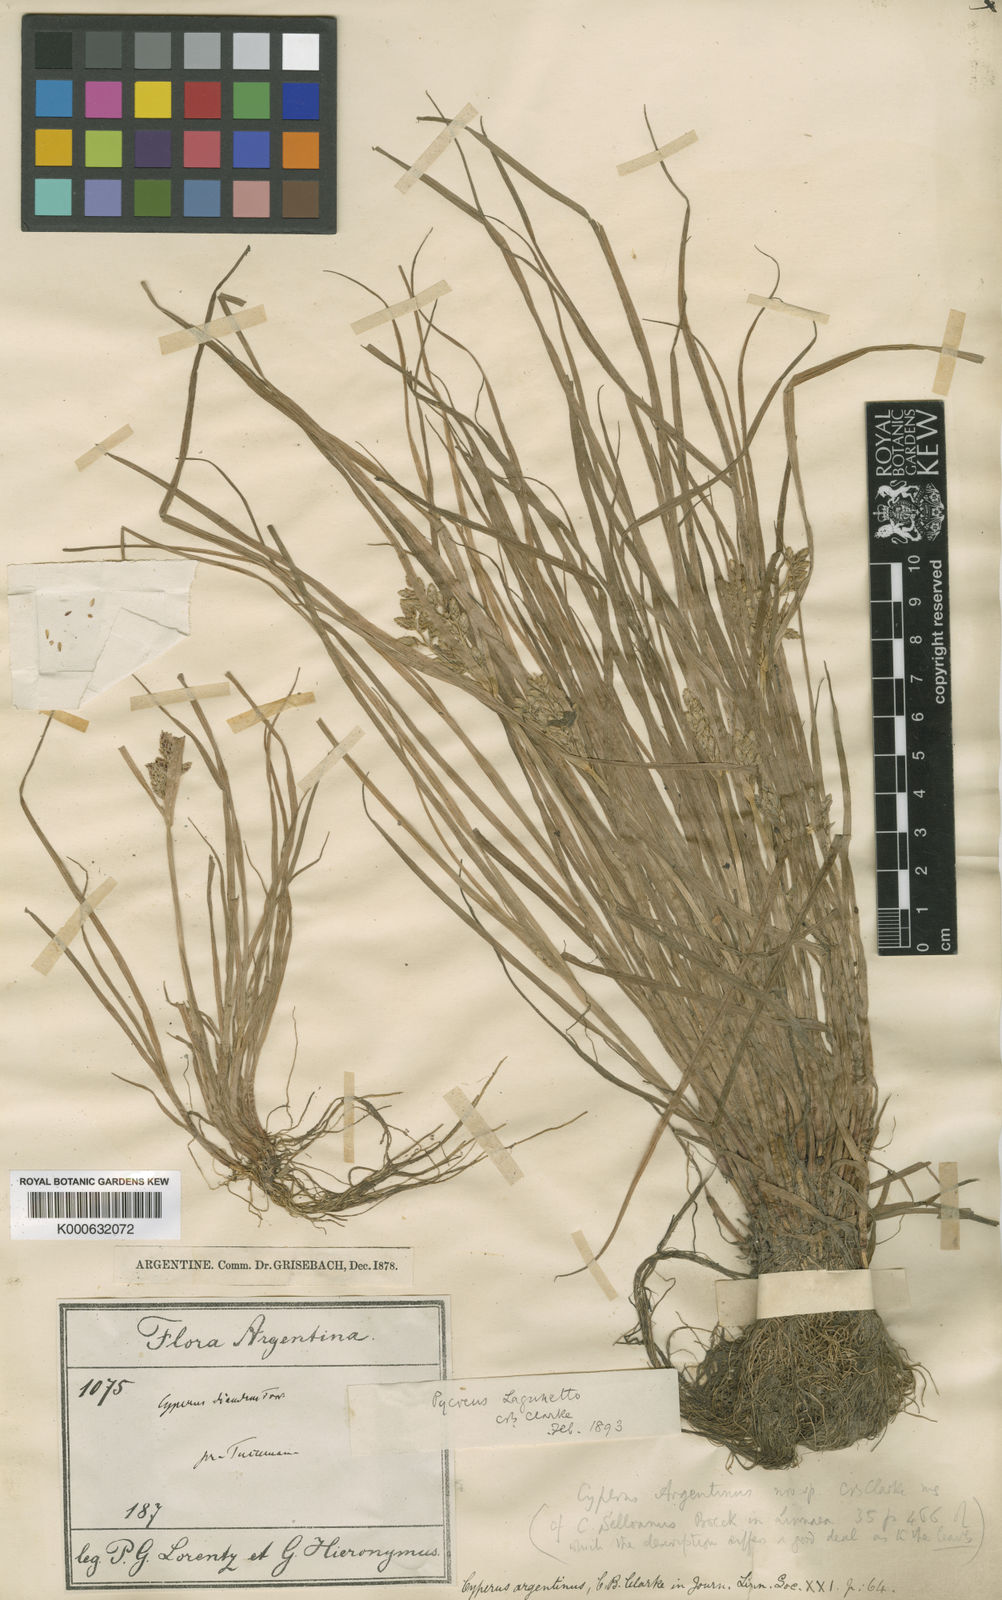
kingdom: Plantae
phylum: Tracheophyta
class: Liliopsida
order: Poales
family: Cyperaceae
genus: Cyperus
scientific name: Cyperus bipartitus
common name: Brook flatsedge
